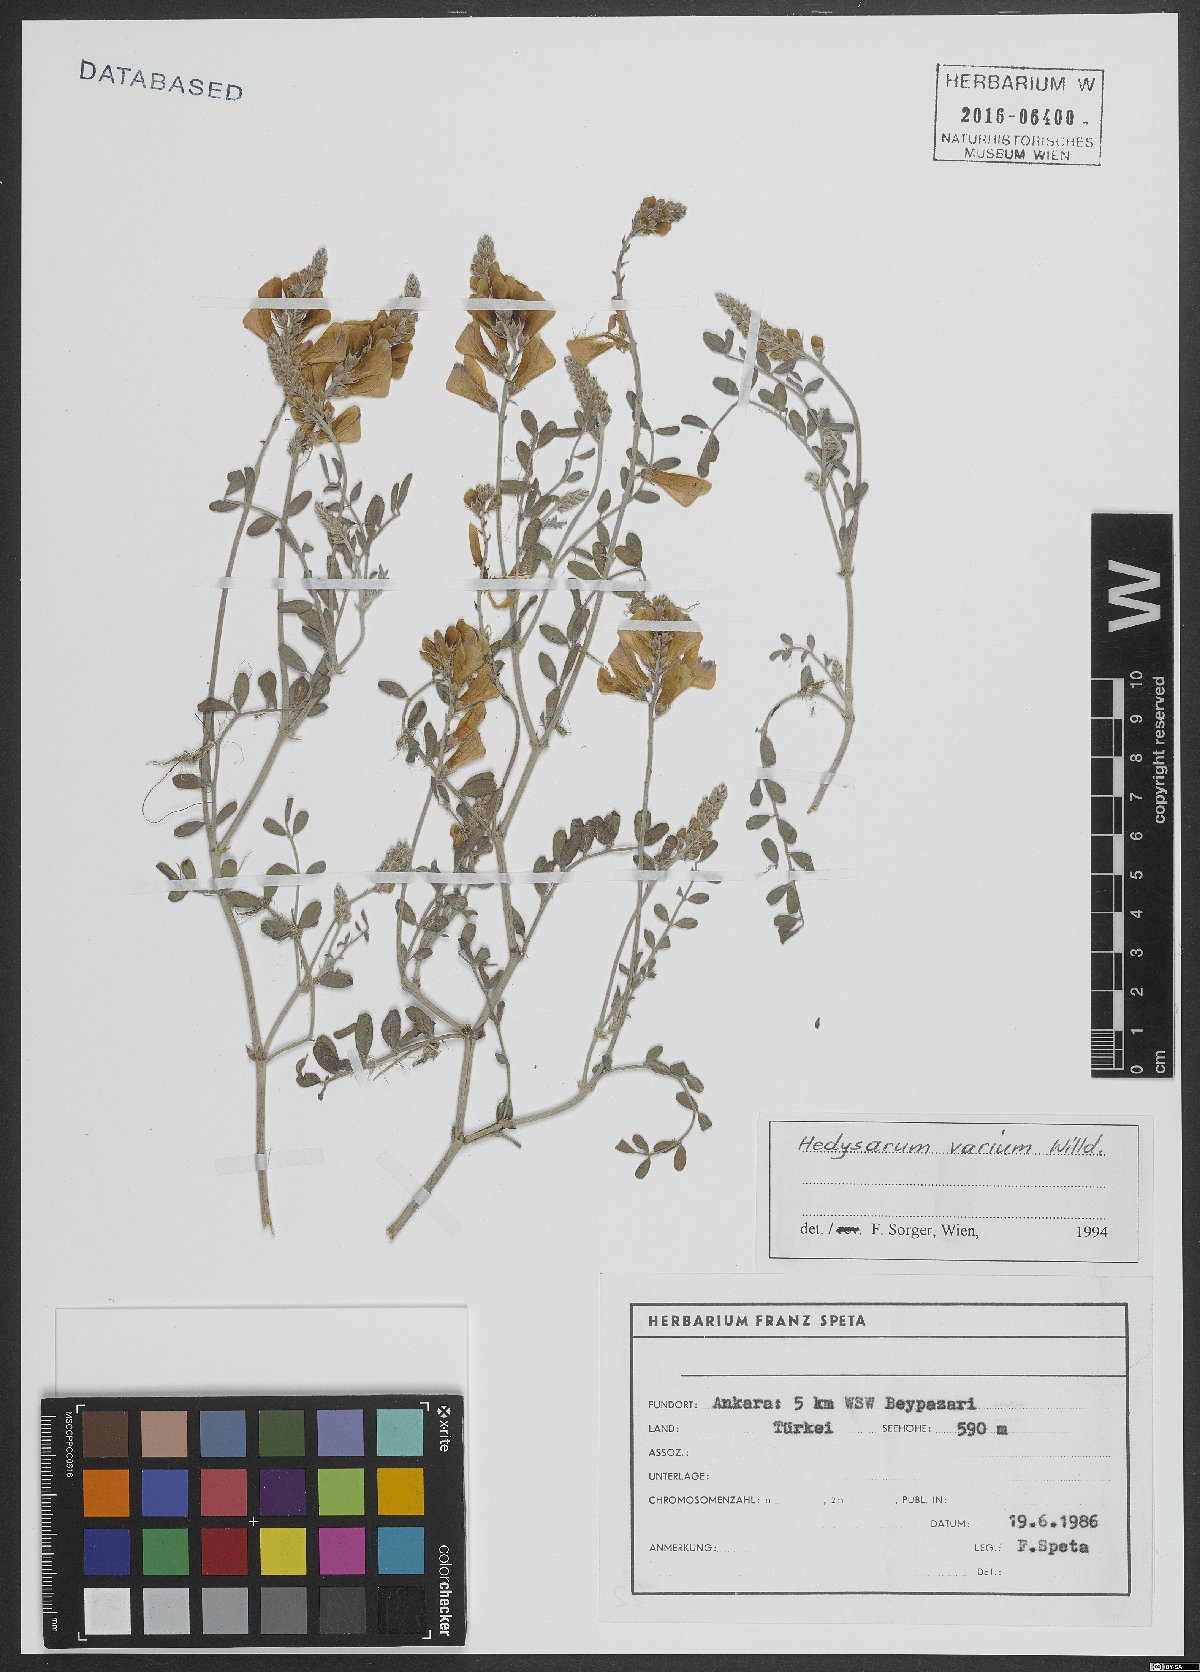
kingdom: Plantae
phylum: Tracheophyta
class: Magnoliopsida
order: Fabales
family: Fabaceae
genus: Hedysarum
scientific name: Hedysarum varium
